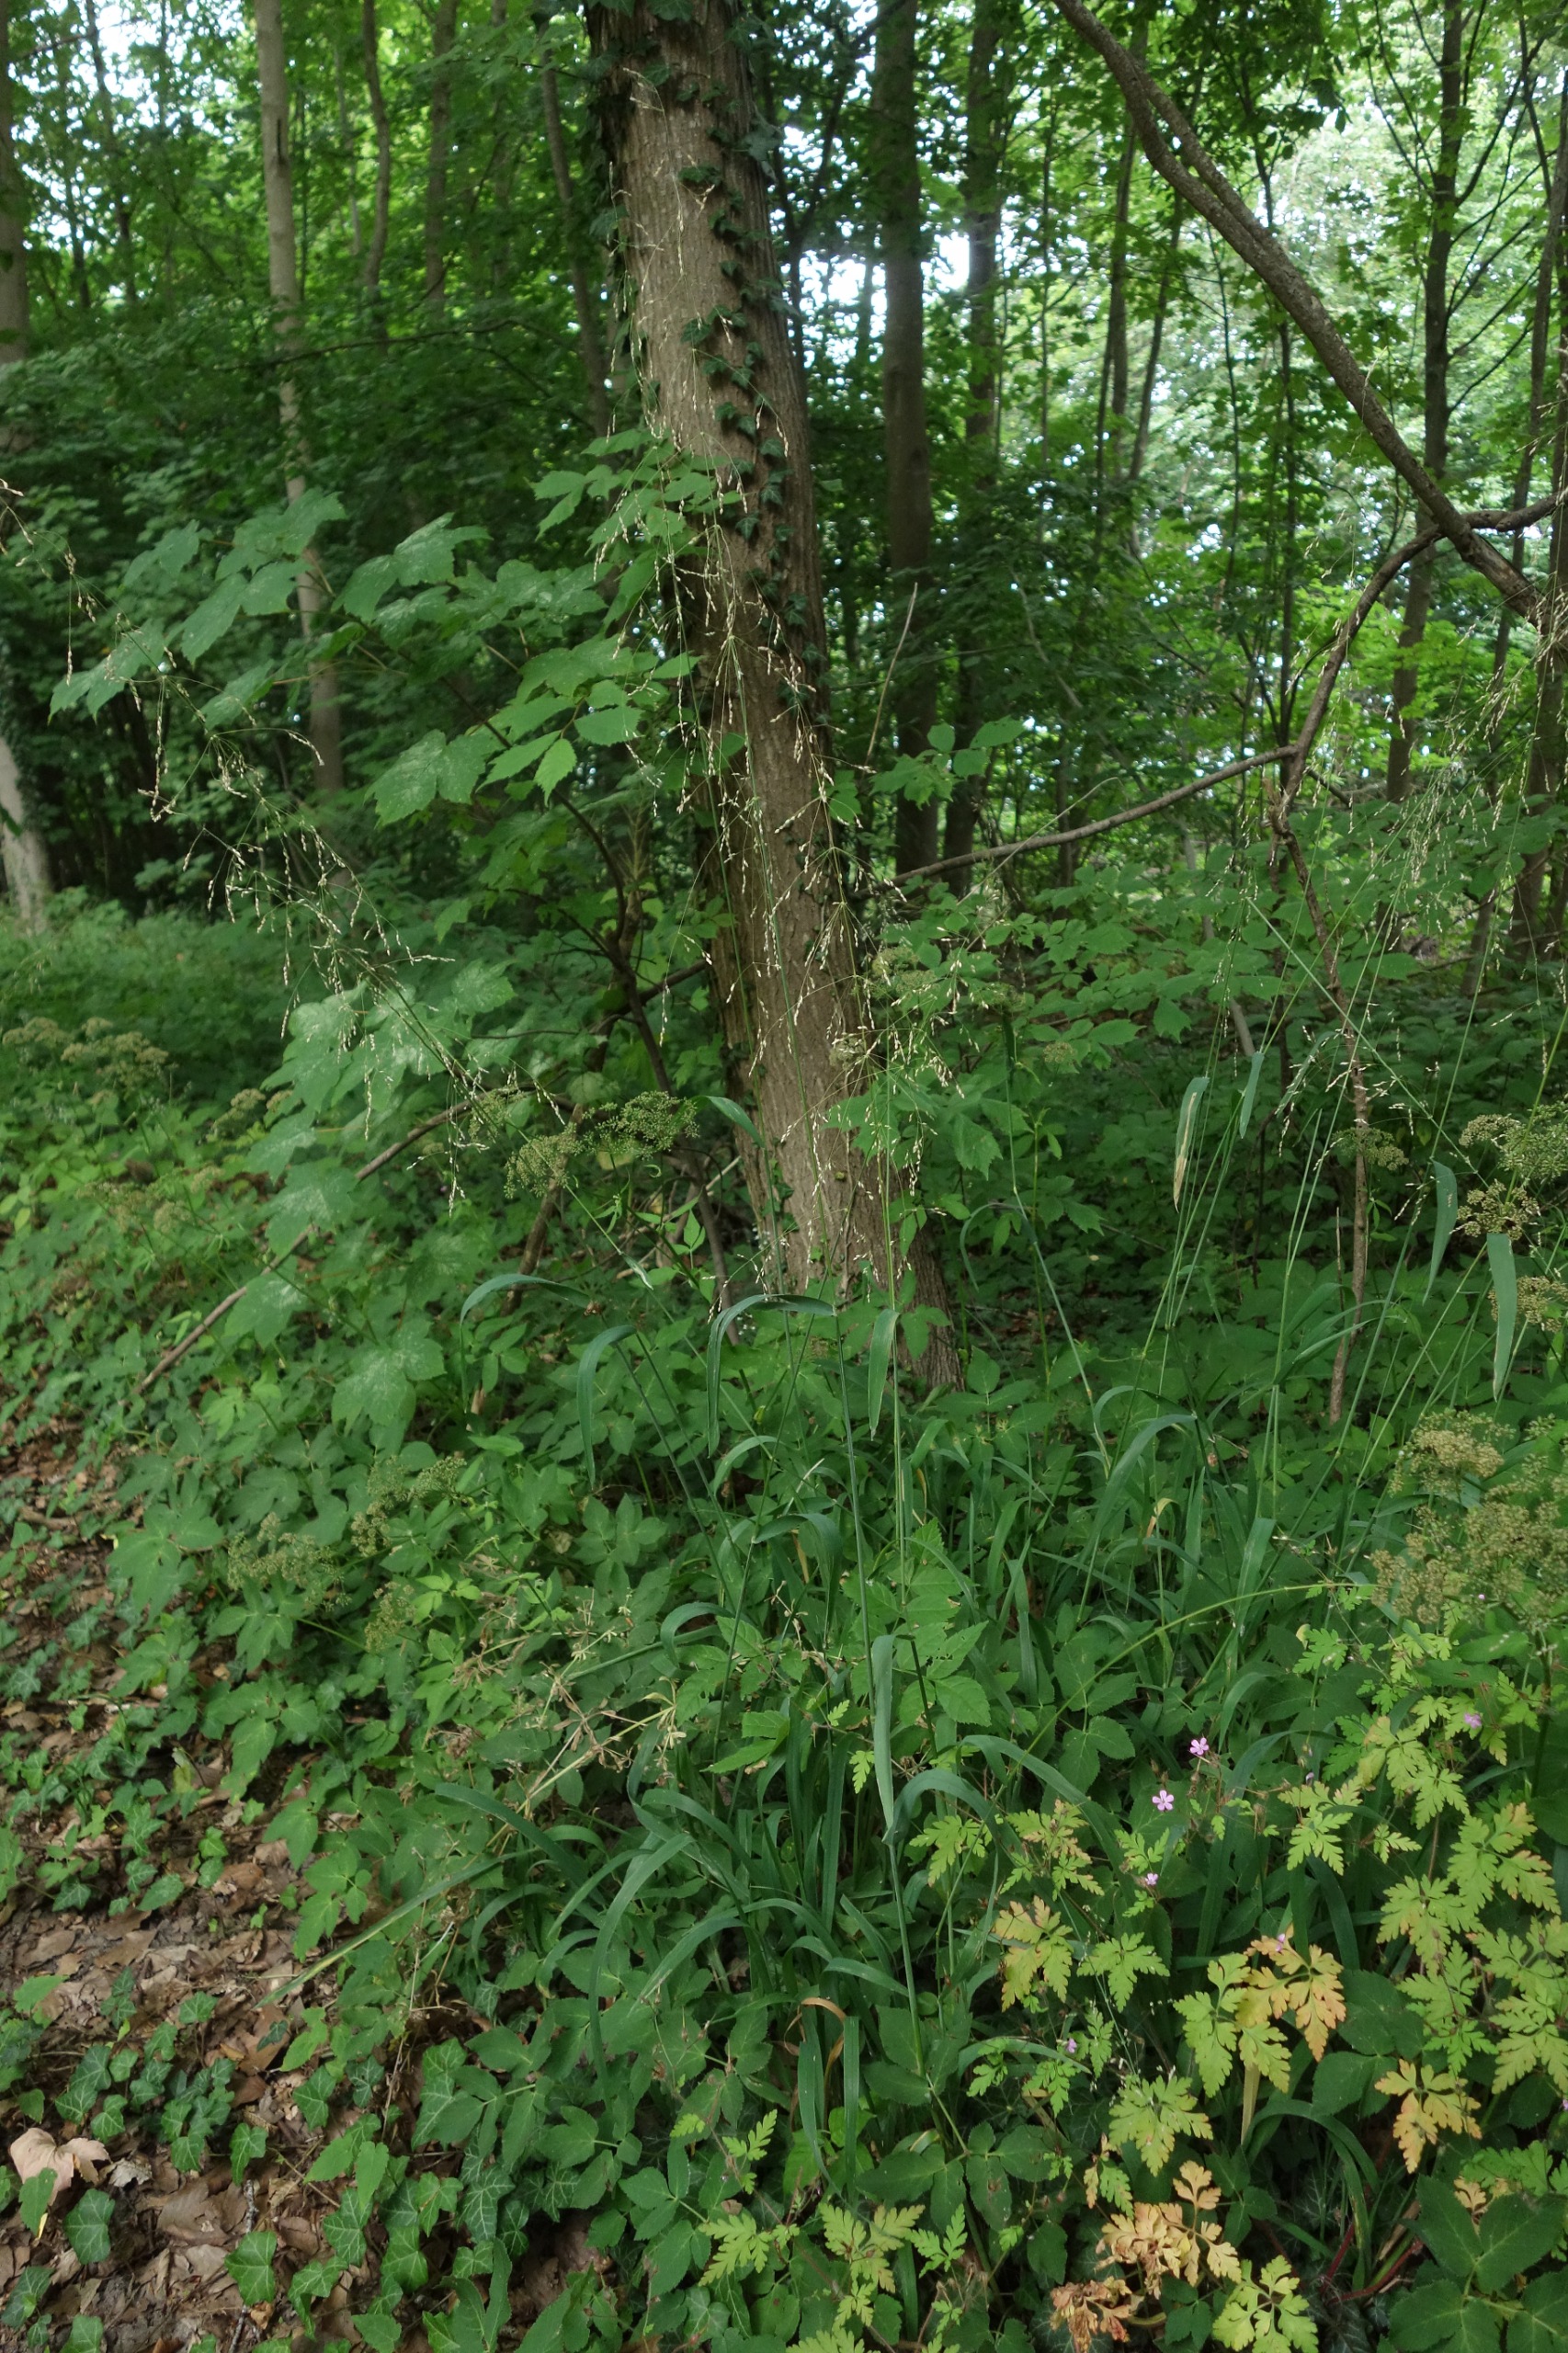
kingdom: Plantae
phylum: Tracheophyta
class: Liliopsida
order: Poales
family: Poaceae
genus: Milium
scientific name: Milium effusum
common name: Miliegræs
